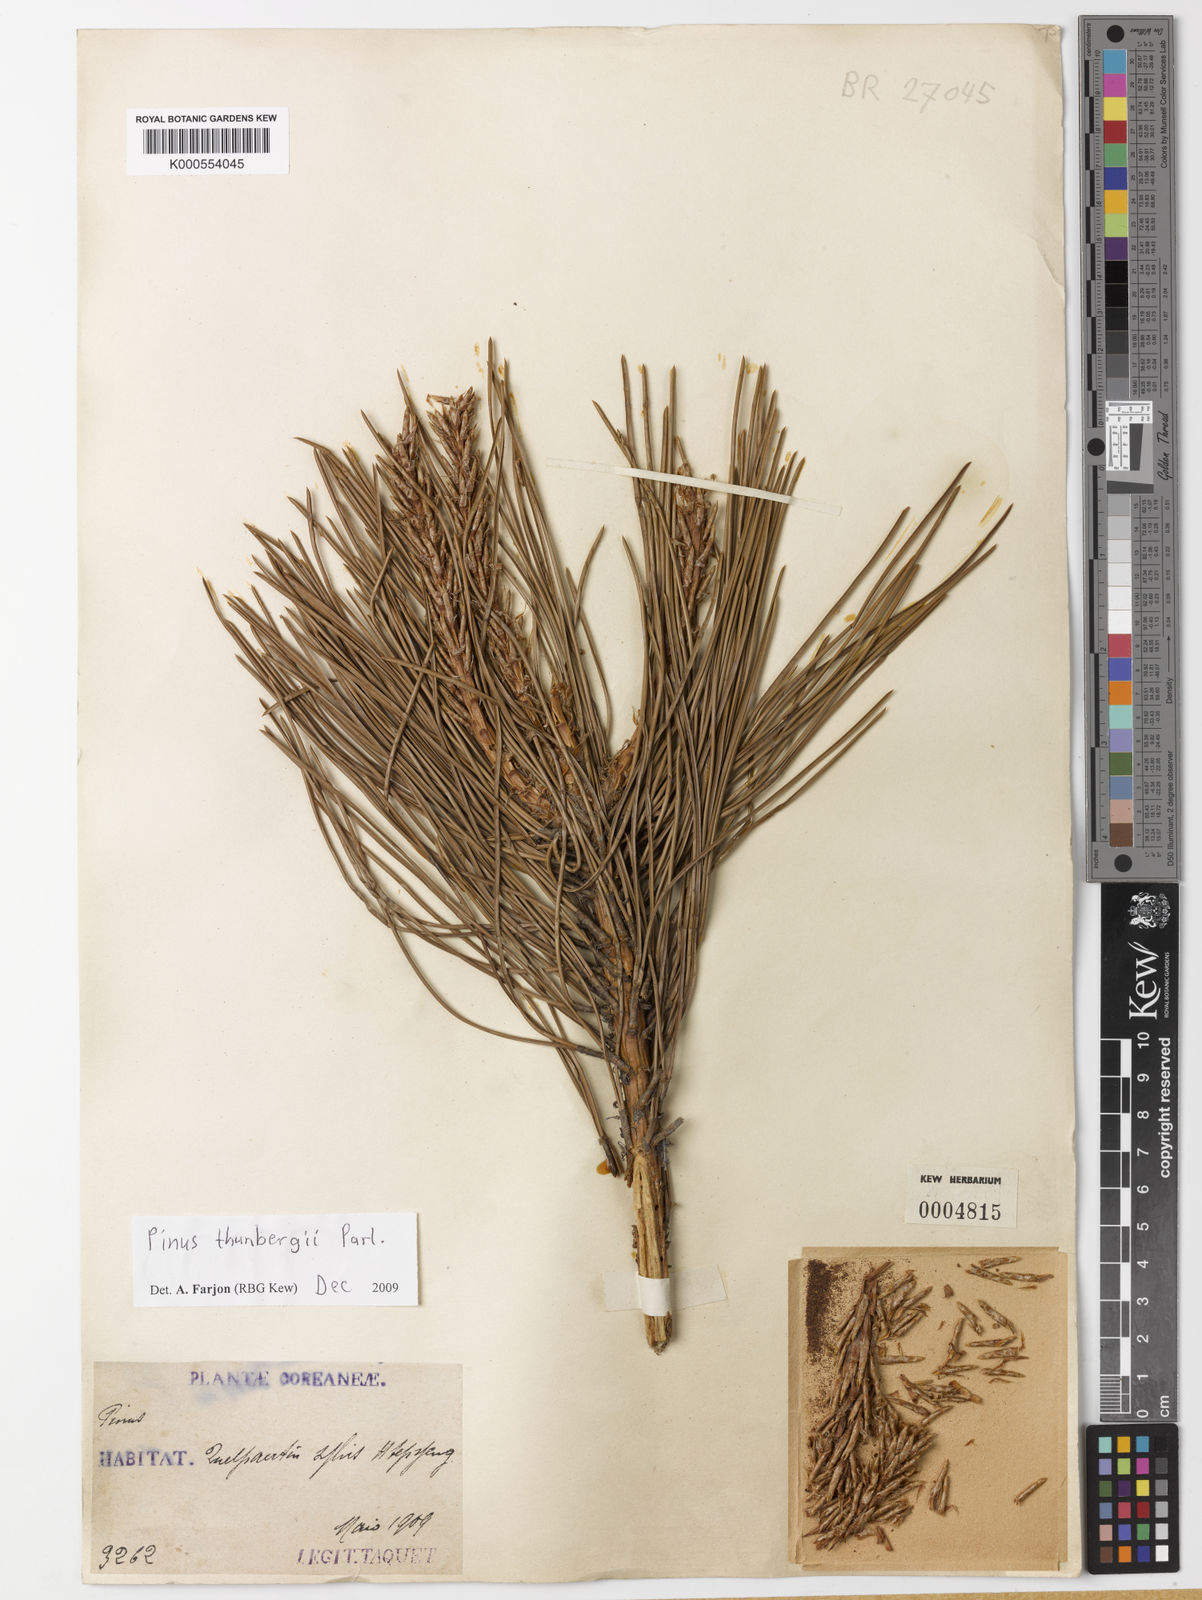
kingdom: Plantae
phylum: Tracheophyta
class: Pinopsida
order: Pinales
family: Pinaceae
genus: Pinus
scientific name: Pinus thunbergii
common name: Japanese black pine
